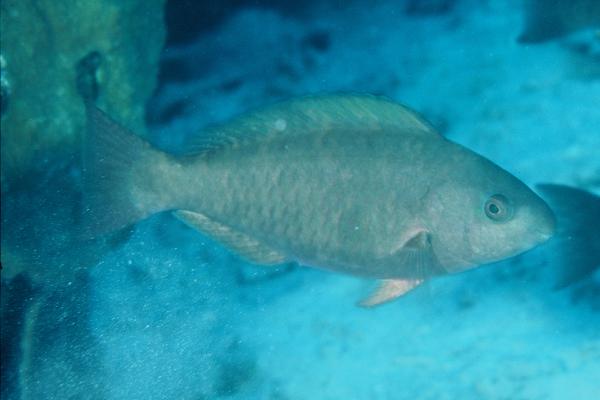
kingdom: Animalia
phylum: Chordata
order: Perciformes
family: Scaridae
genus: Scarus
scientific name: Scarus psittacus
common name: Palenose parrotfish
